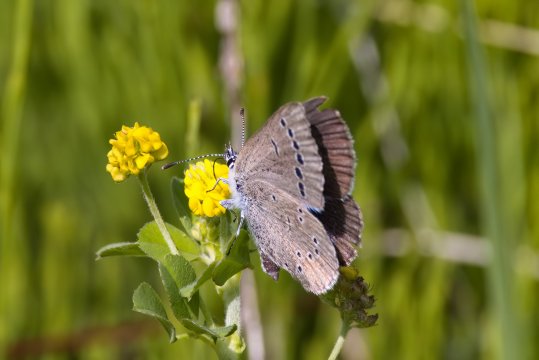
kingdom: Animalia
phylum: Arthropoda
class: Insecta
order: Lepidoptera
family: Lycaenidae
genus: Glaucopsyche
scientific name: Glaucopsyche lygdamus
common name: Silvery Blue
